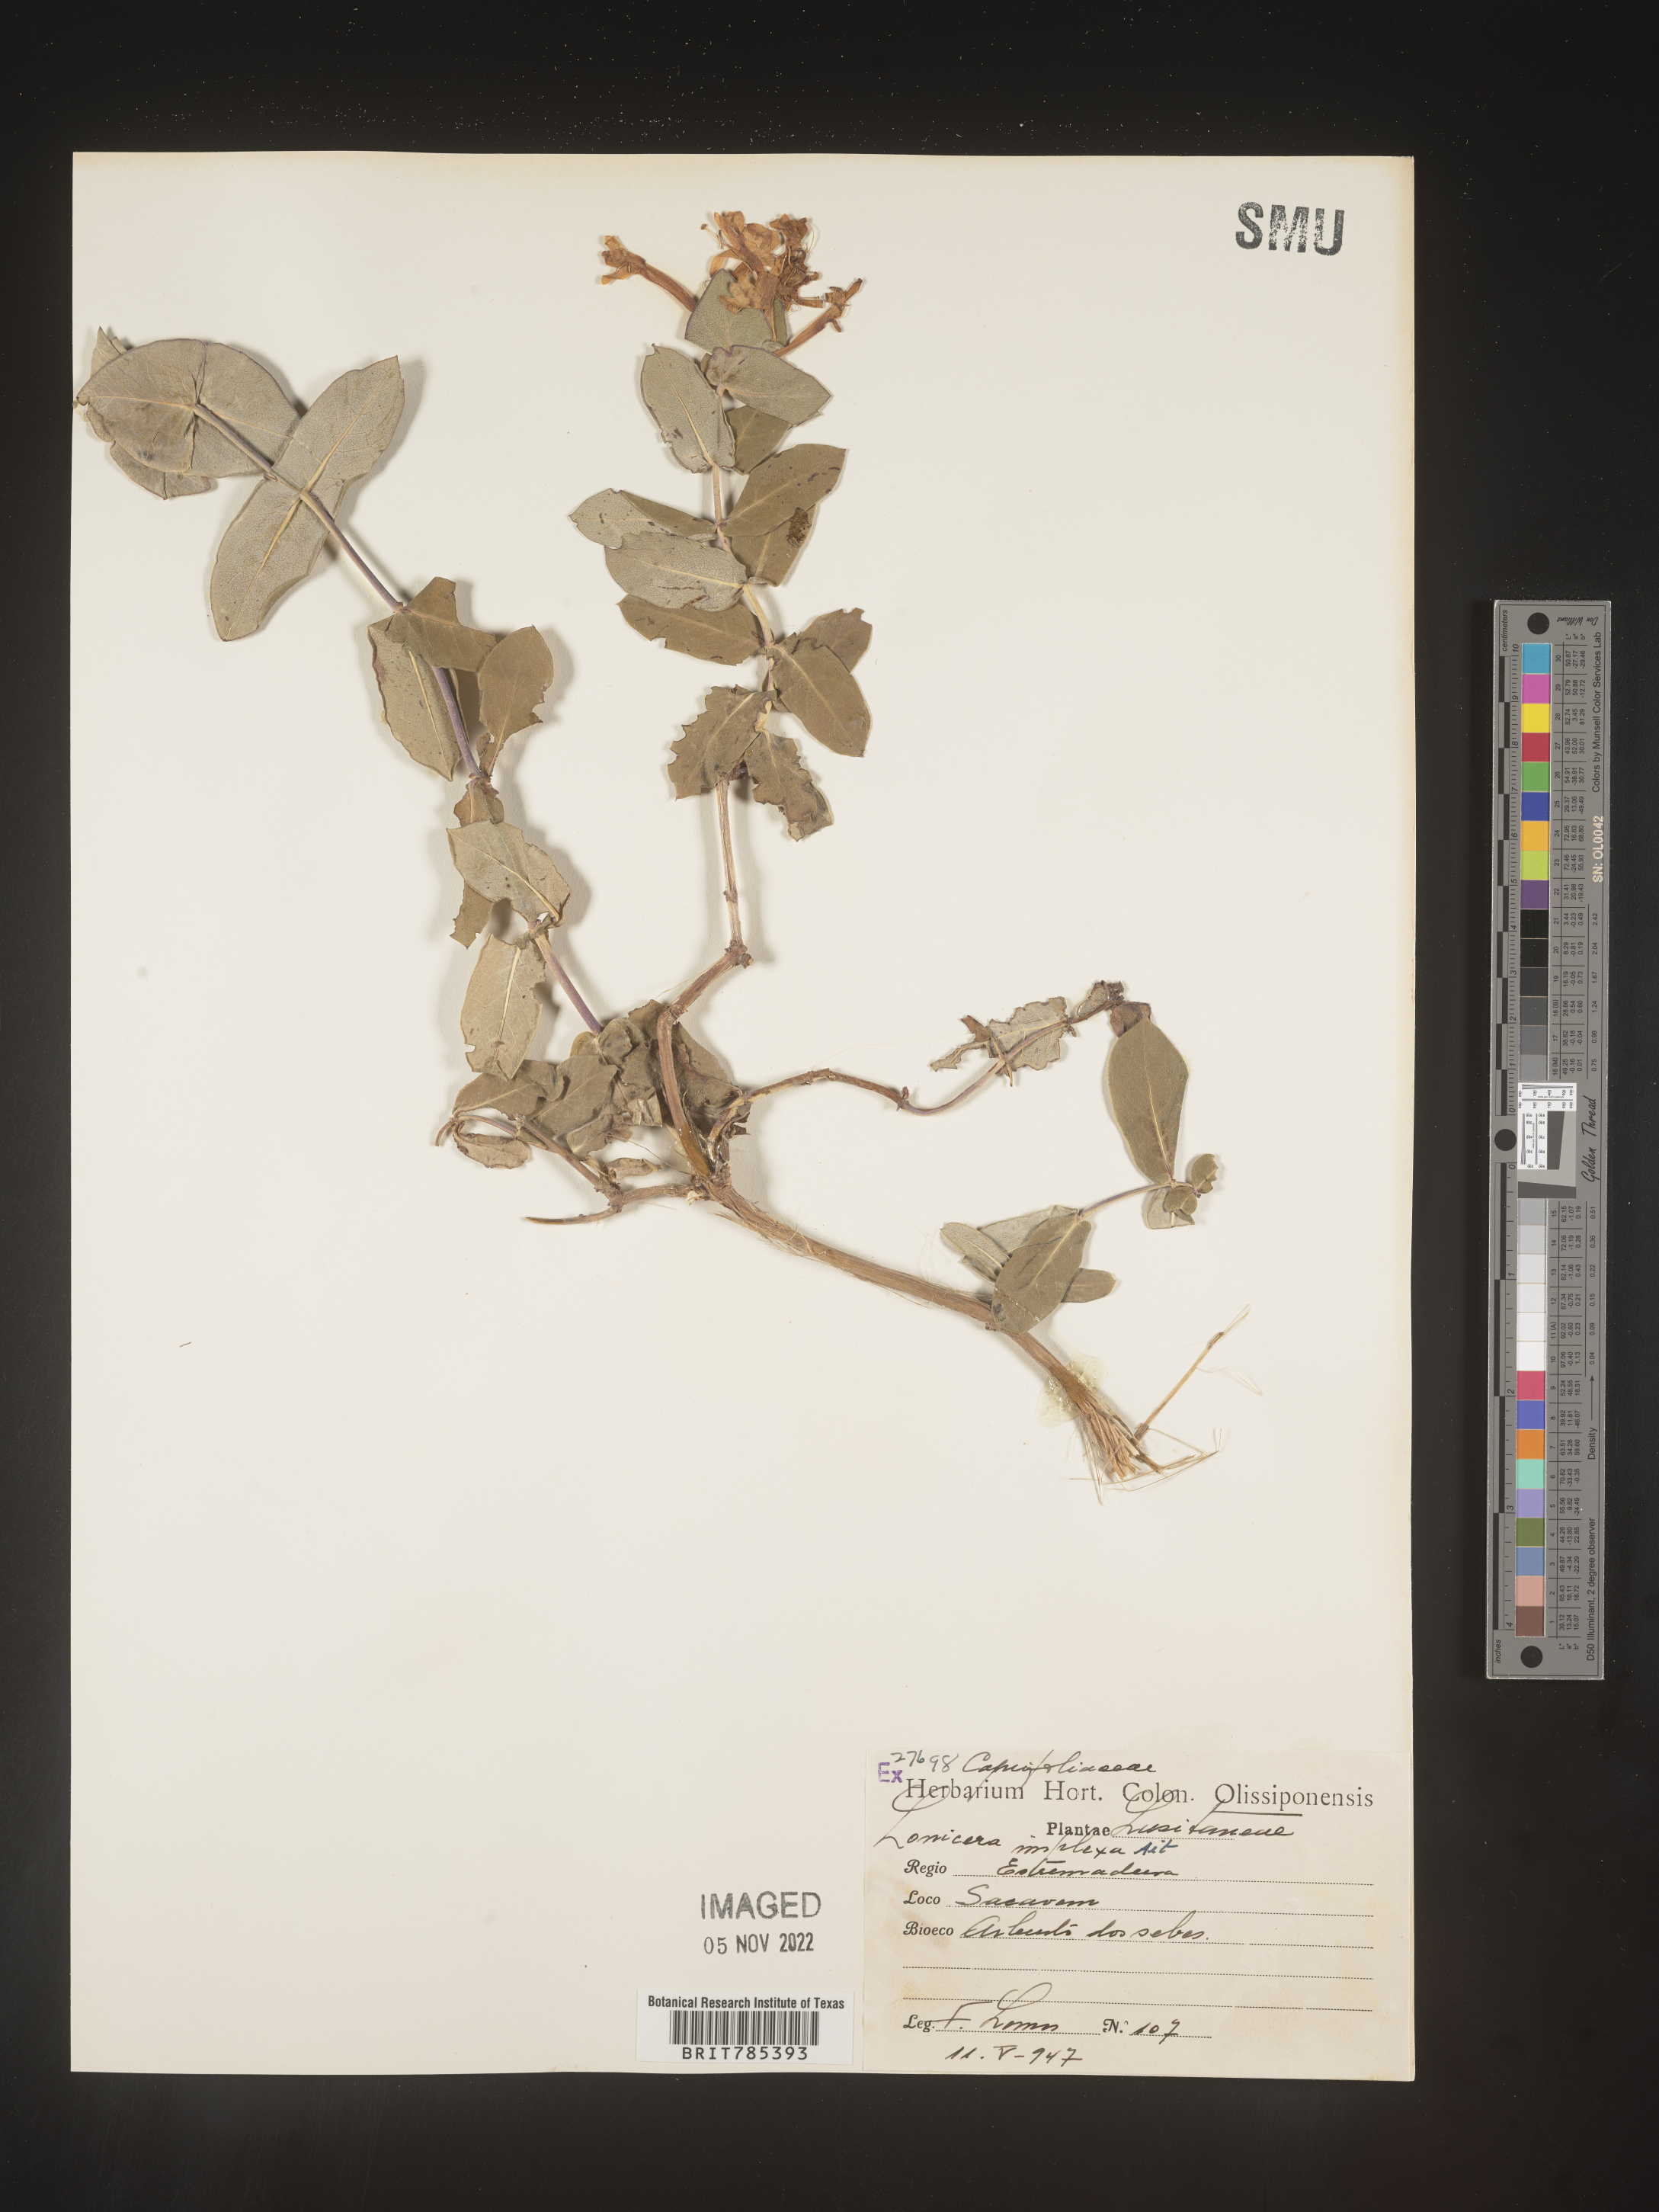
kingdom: Plantae
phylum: Tracheophyta
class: Magnoliopsida
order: Dipsacales
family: Caprifoliaceae
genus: Lonicera
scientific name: Lonicera
